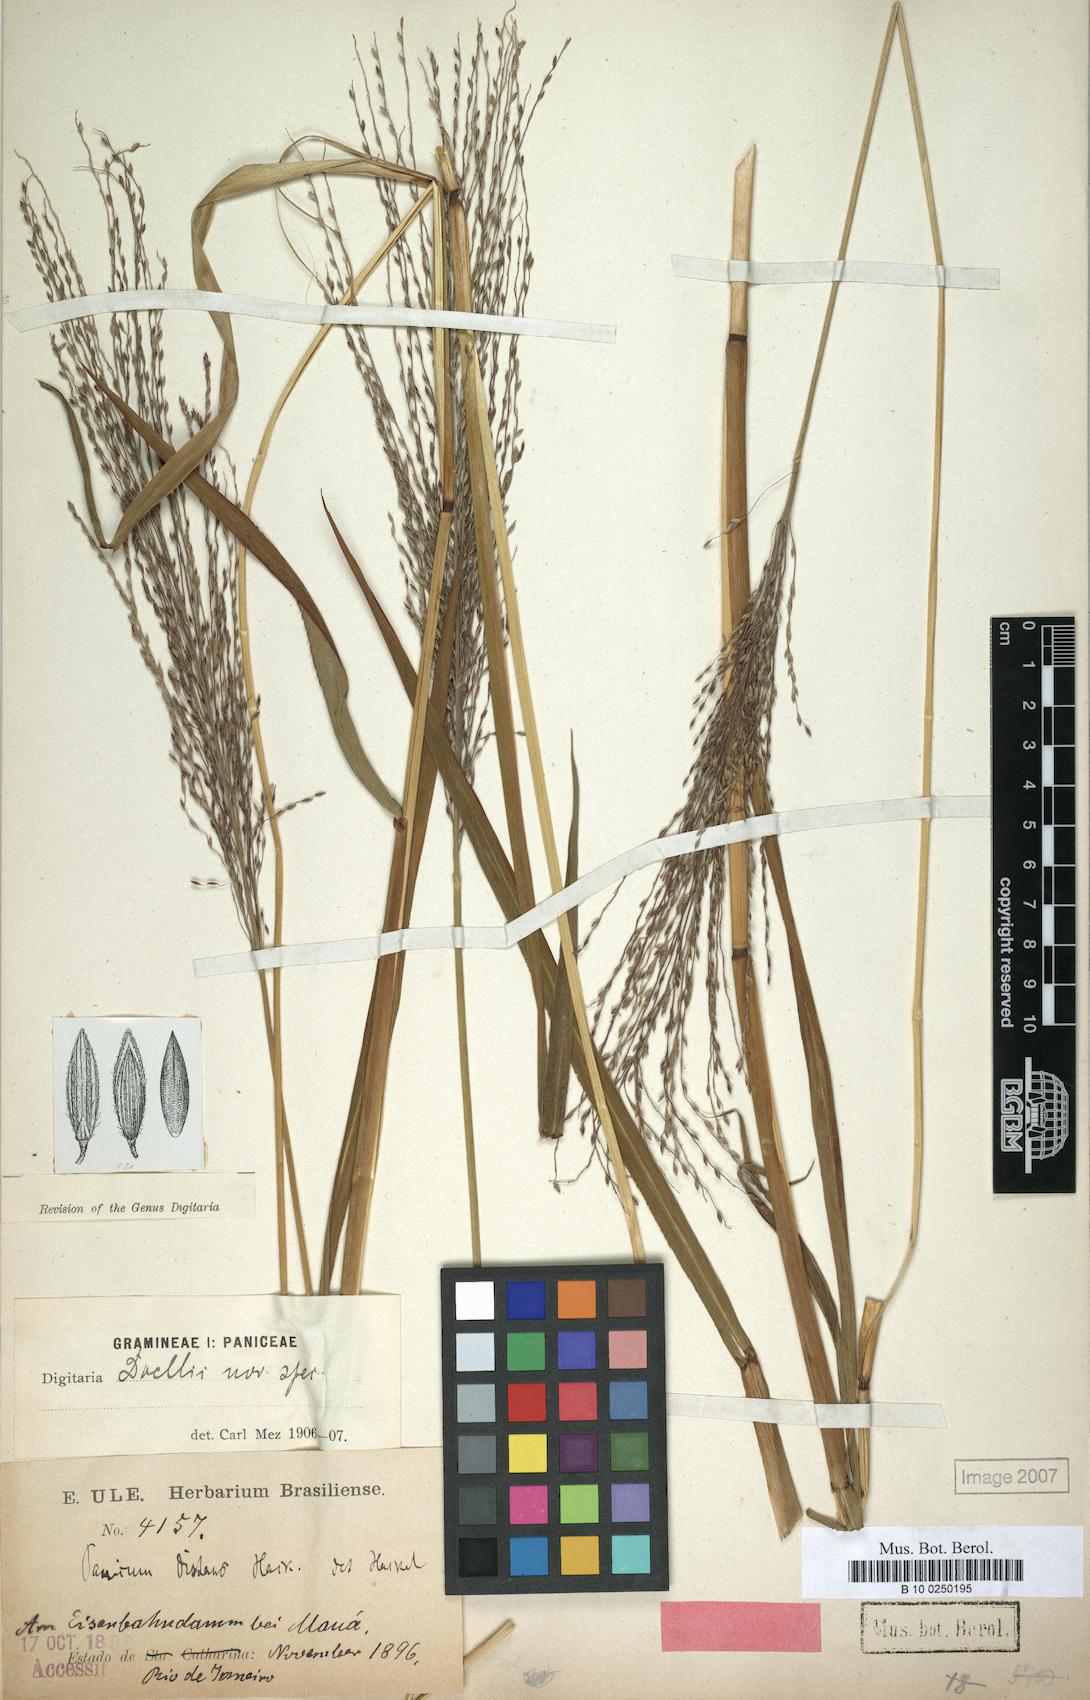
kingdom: Plantae
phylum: Tracheophyta
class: Liliopsida
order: Poales
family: Poaceae
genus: Digitaria
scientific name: Digitaria doellii
